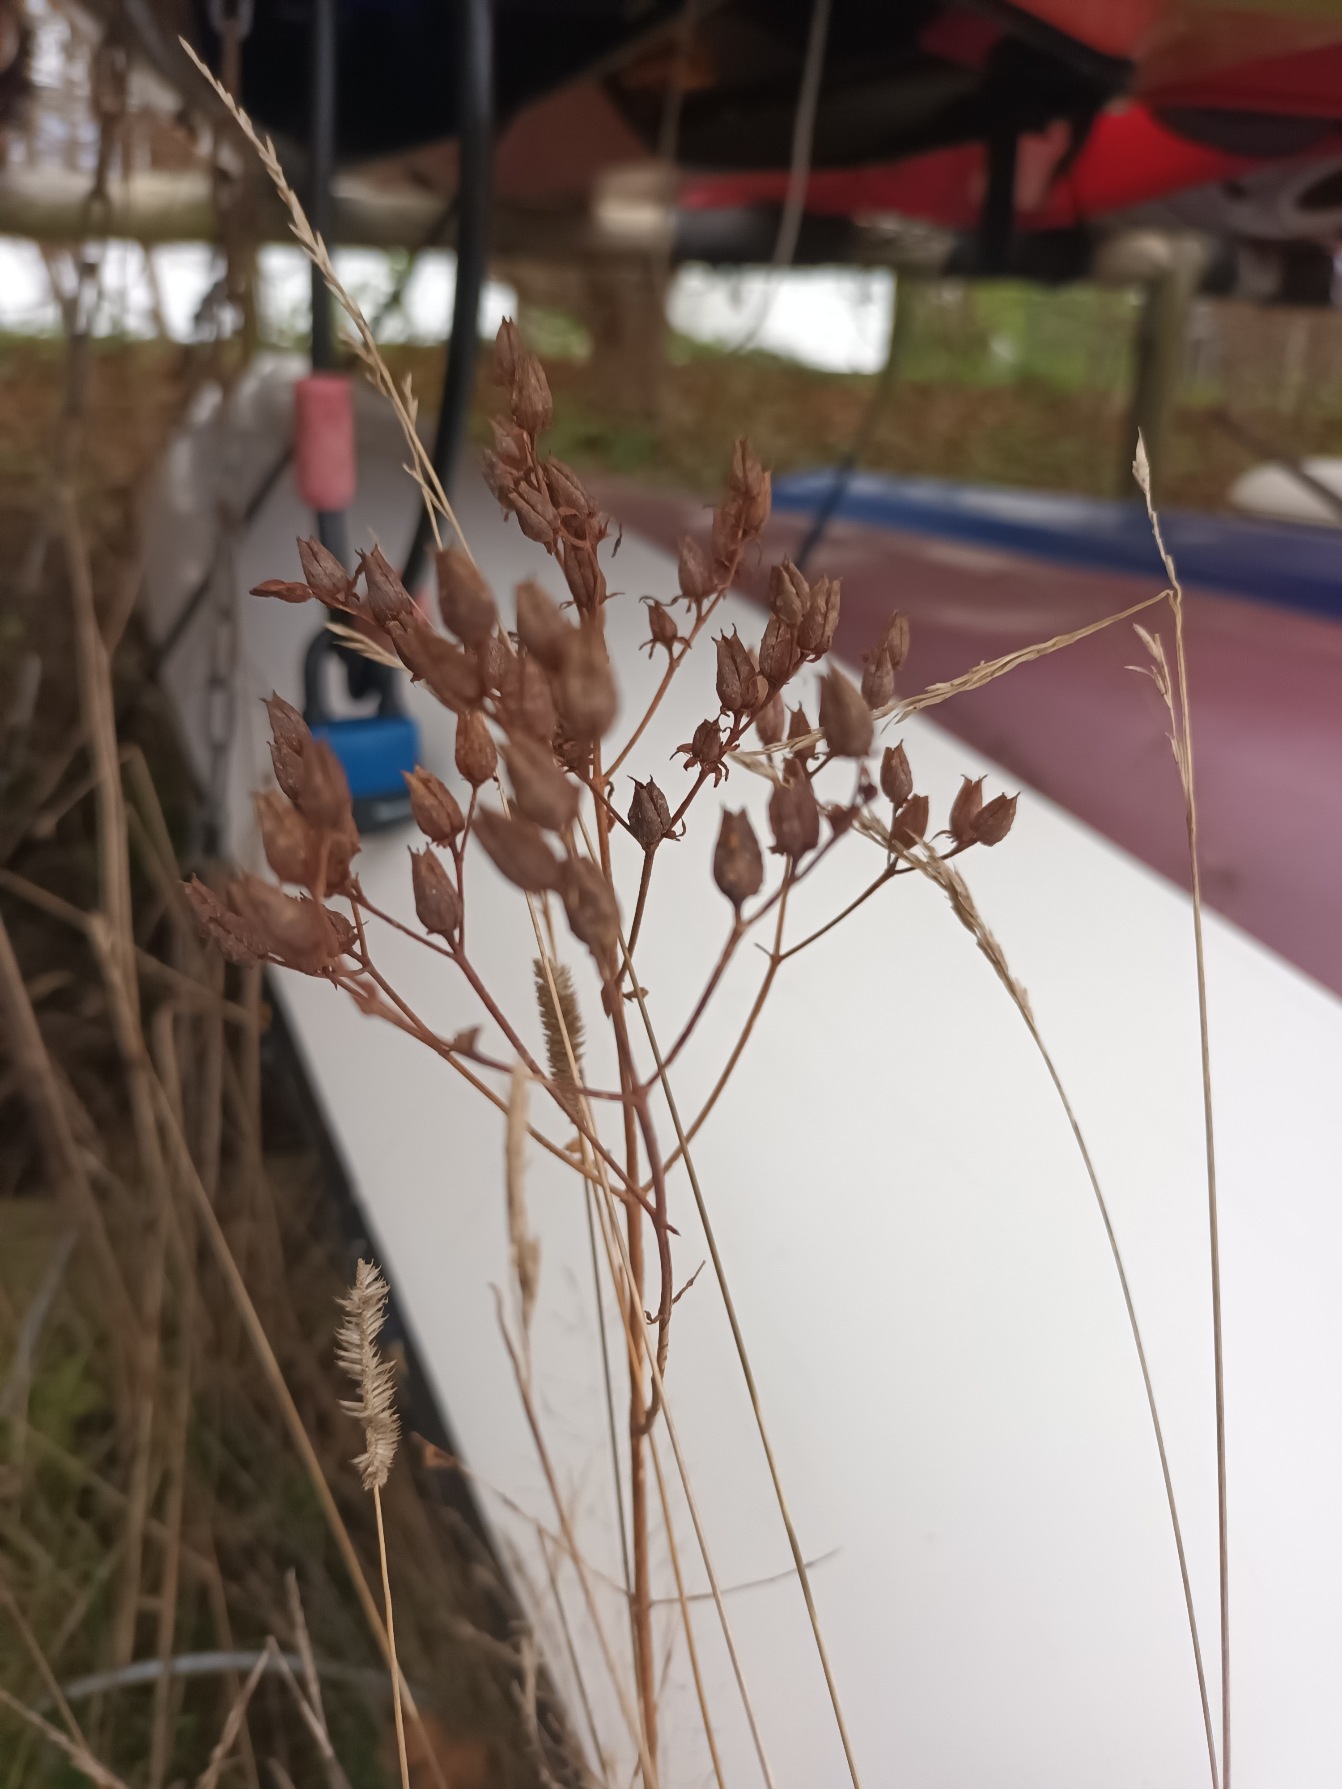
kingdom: Plantae
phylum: Tracheophyta
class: Magnoliopsida
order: Malpighiales
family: Hypericaceae
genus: Hypericum
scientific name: Hypericum perforatum
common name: Prikbladet perikon
